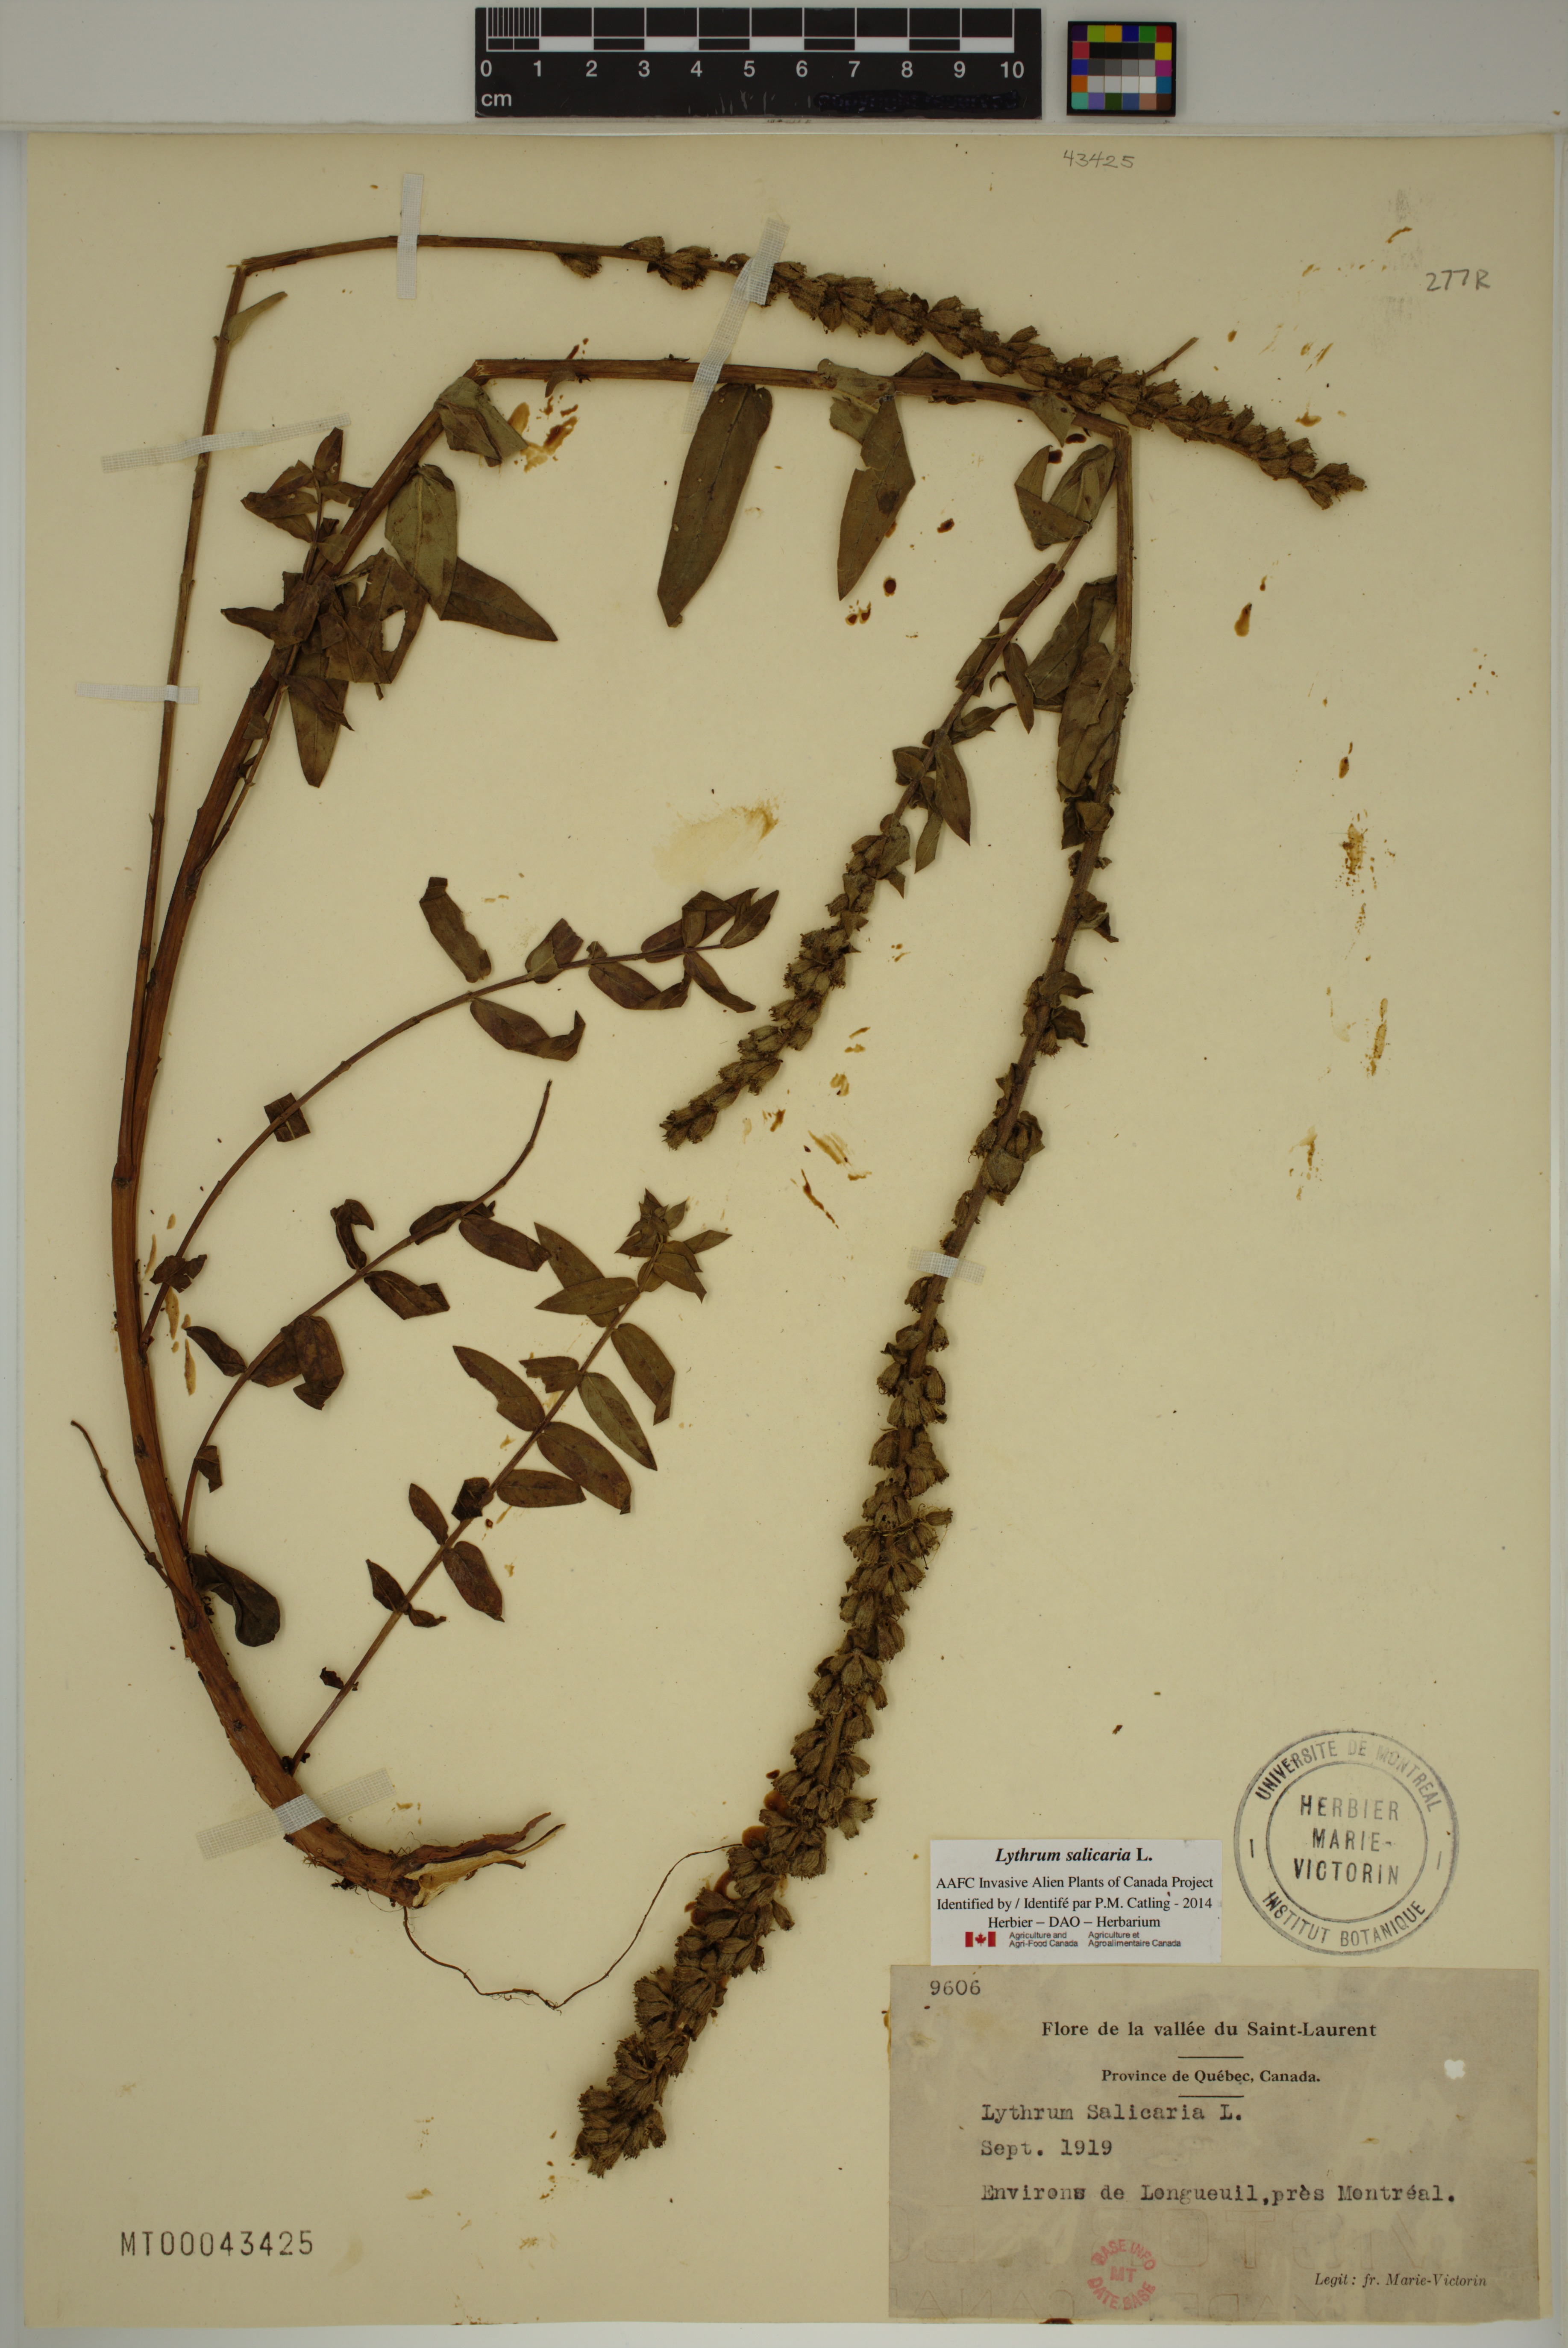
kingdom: Plantae
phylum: Tracheophyta
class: Magnoliopsida
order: Myrtales
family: Lythraceae
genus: Lythrum
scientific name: Lythrum salicaria
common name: Purple loosestrife
